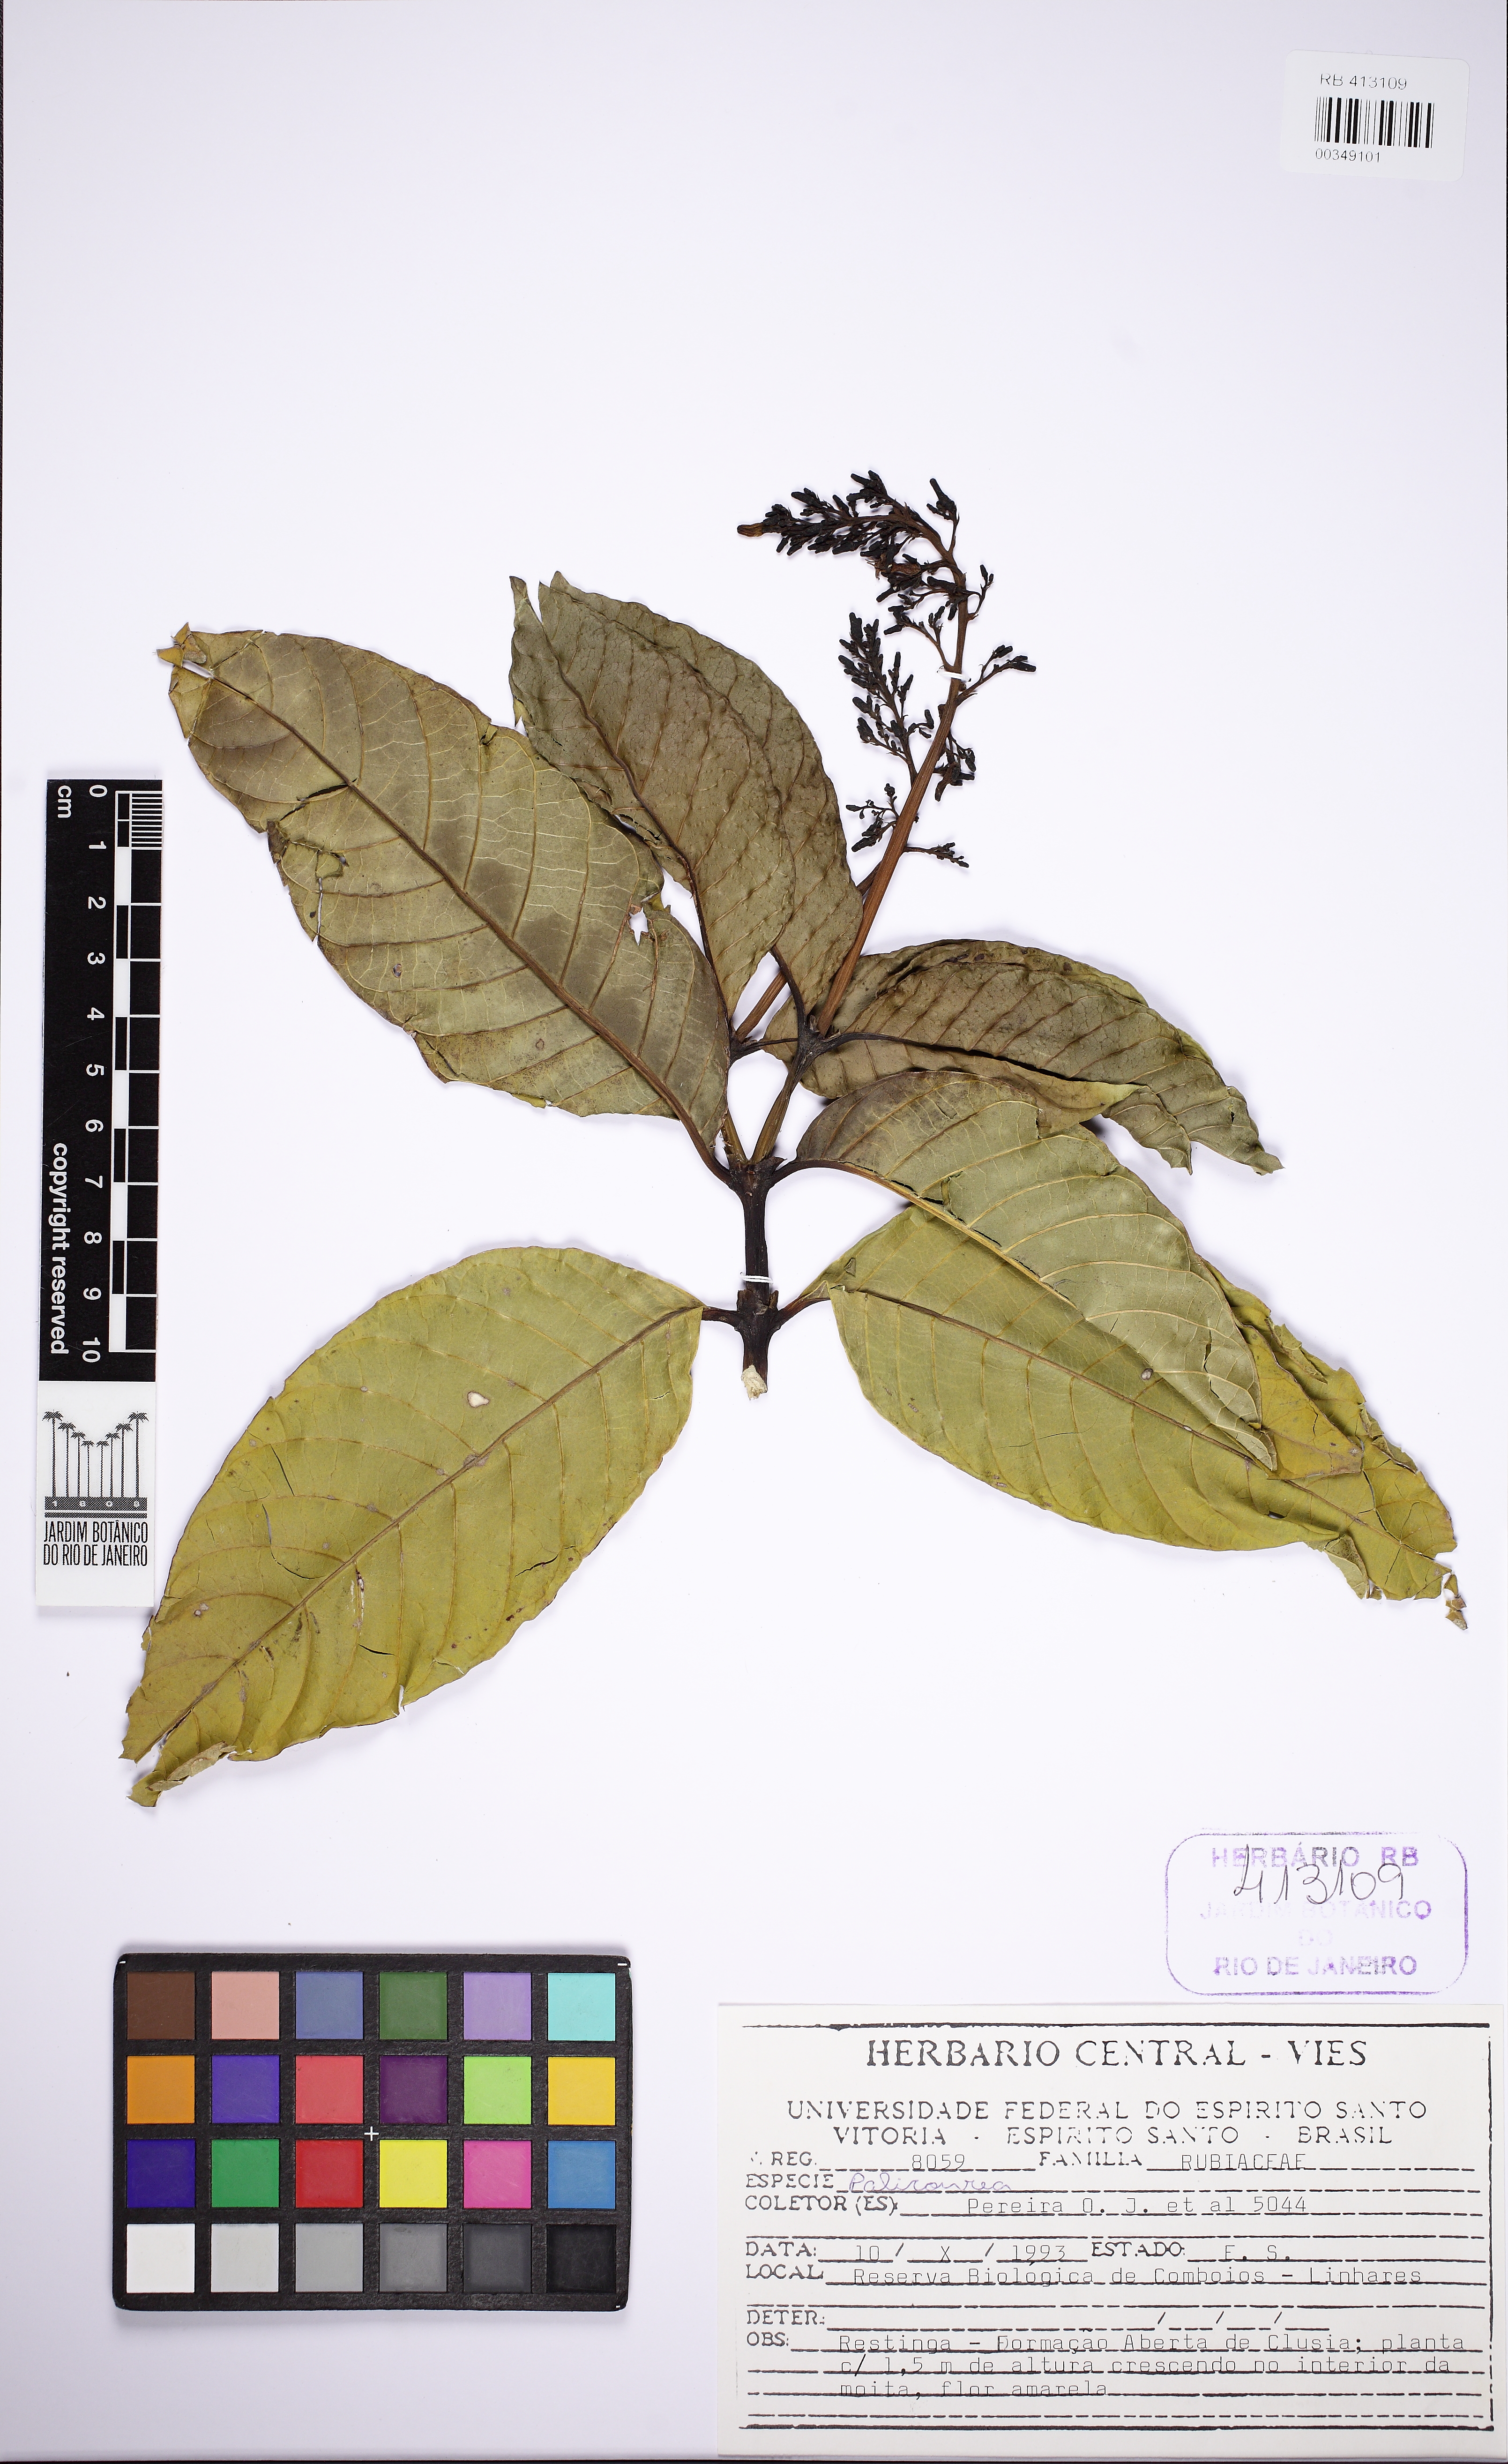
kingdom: Plantae
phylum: Tracheophyta
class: Magnoliopsida
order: Gentianales
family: Rubiaceae
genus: Palicourea
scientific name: Palicourea
